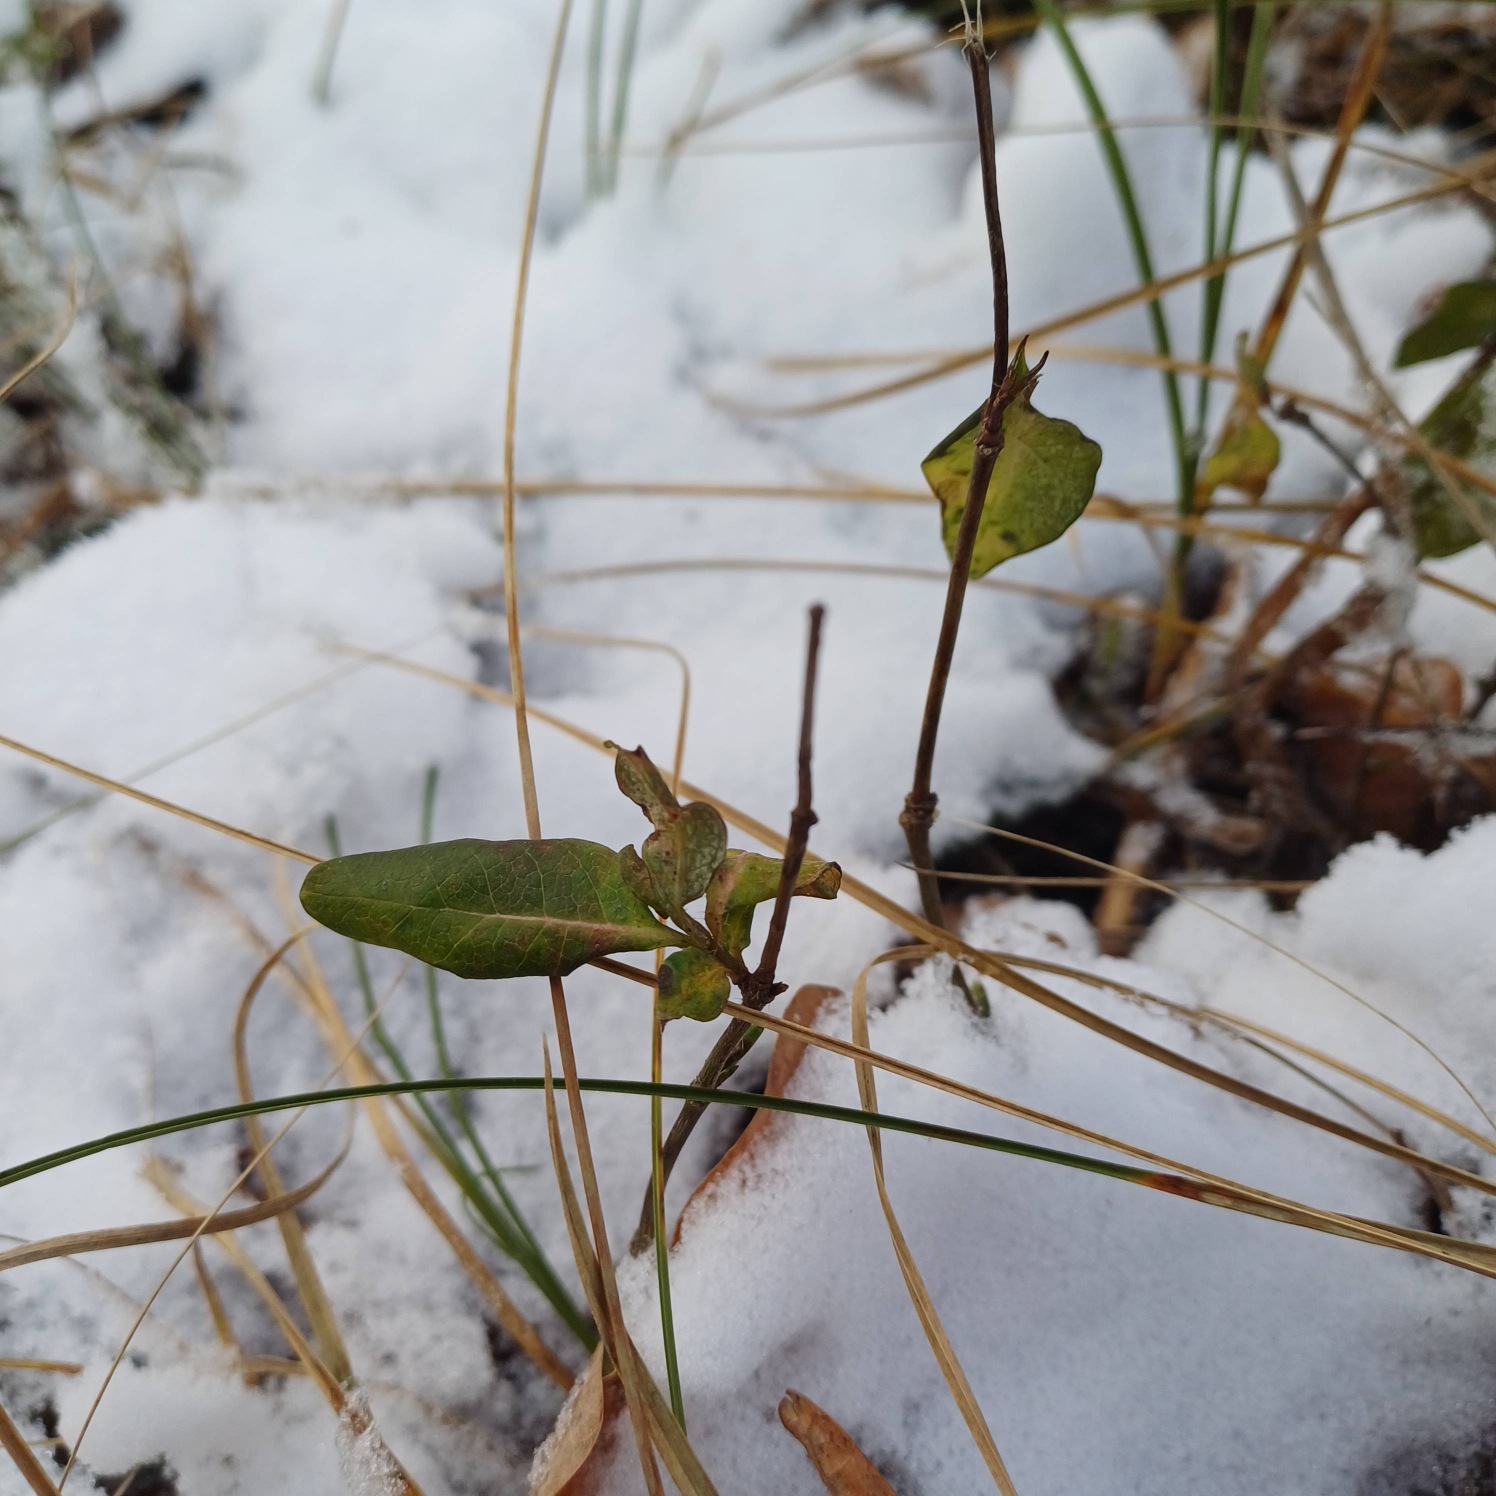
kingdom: Plantae
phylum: Tracheophyta
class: Magnoliopsida
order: Dipsacales
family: Caprifoliaceae
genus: Lonicera
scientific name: Lonicera periclymenum
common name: Almindelig gedeblad
